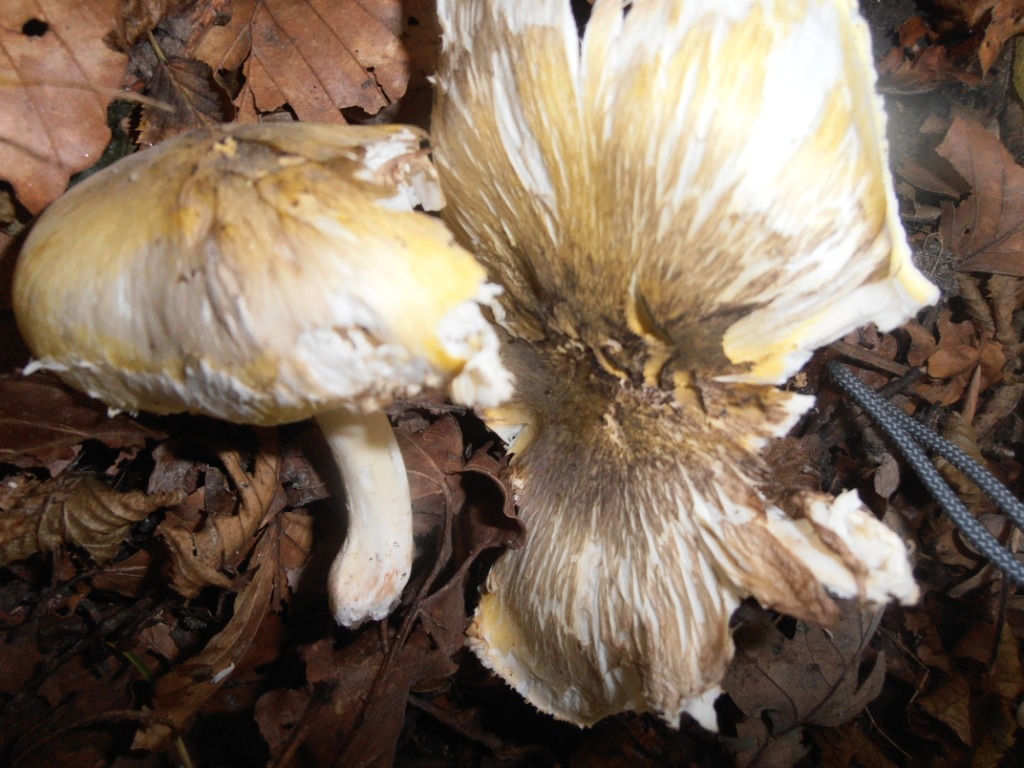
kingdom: Fungi
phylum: Basidiomycota
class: Agaricomycetes
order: Agaricales
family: Tricholomataceae
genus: Tricholoma
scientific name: Tricholoma sejunctum
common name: grøngul ridderhat
